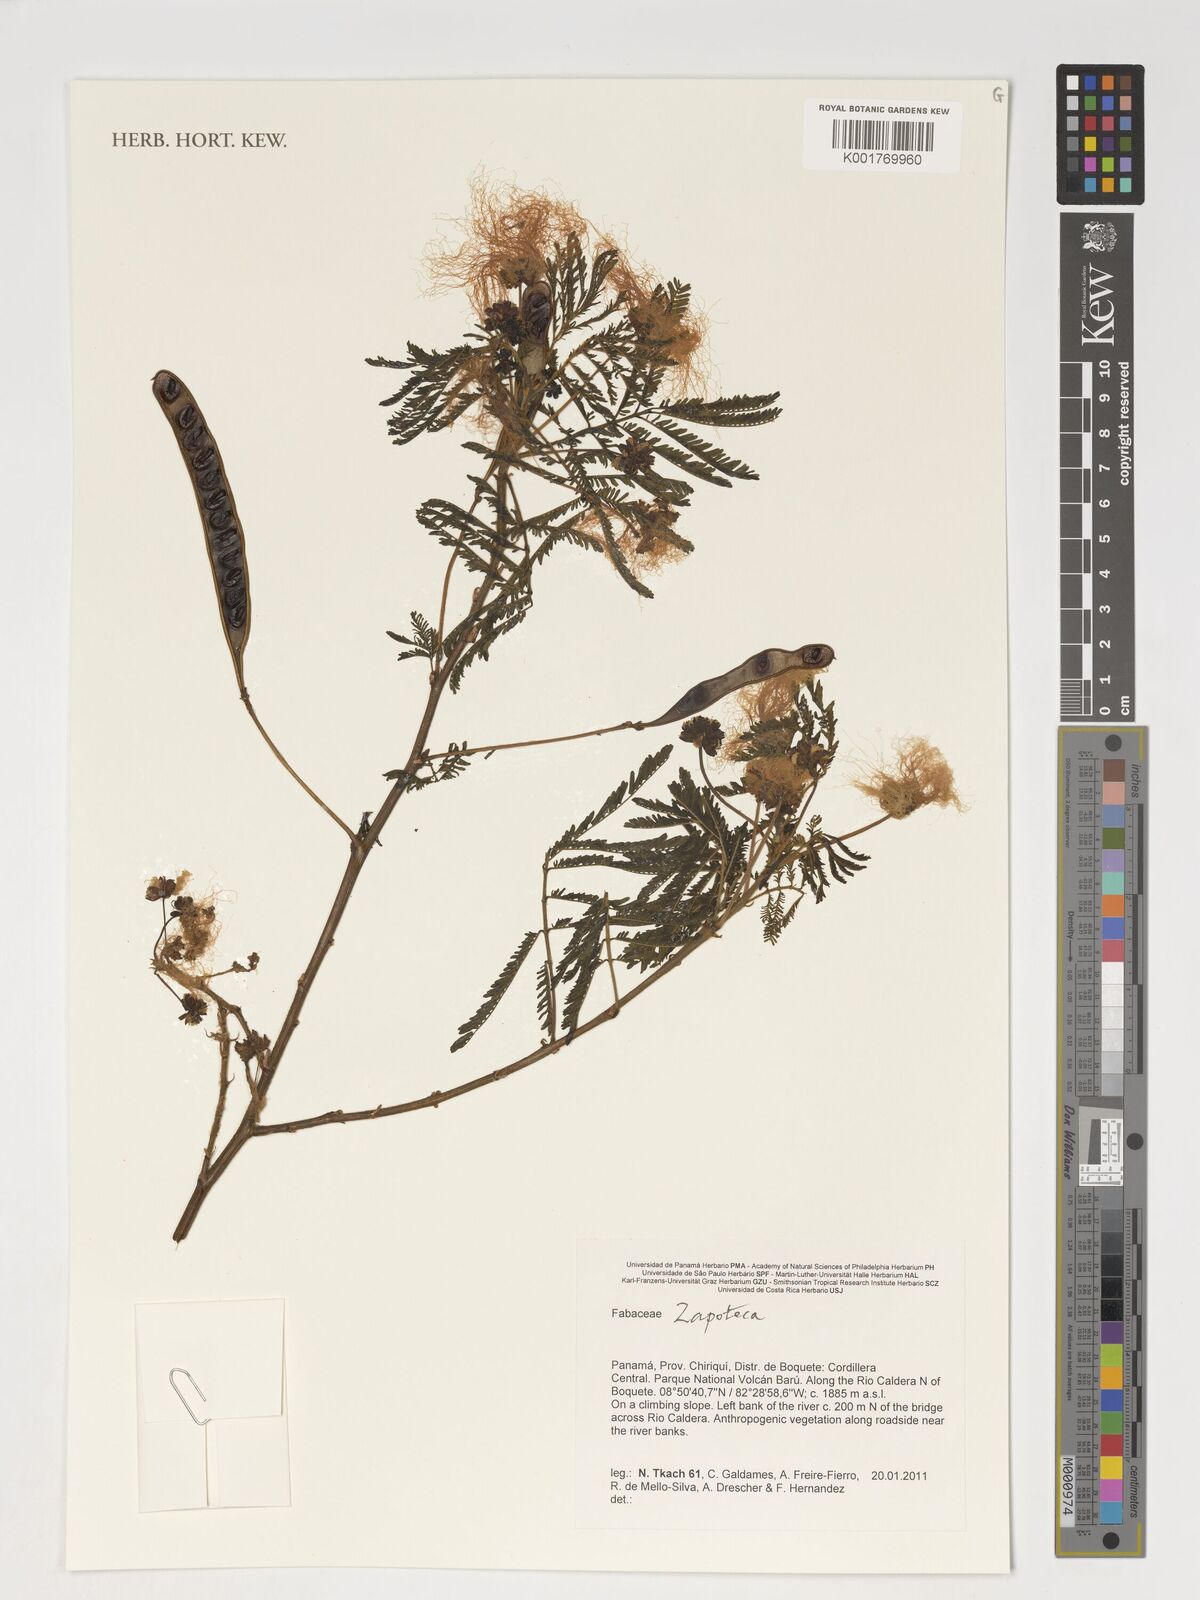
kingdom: Plantae
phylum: Tracheophyta
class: Magnoliopsida
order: Fabales
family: Fabaceae
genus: Zapoteca
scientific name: Zapoteca
